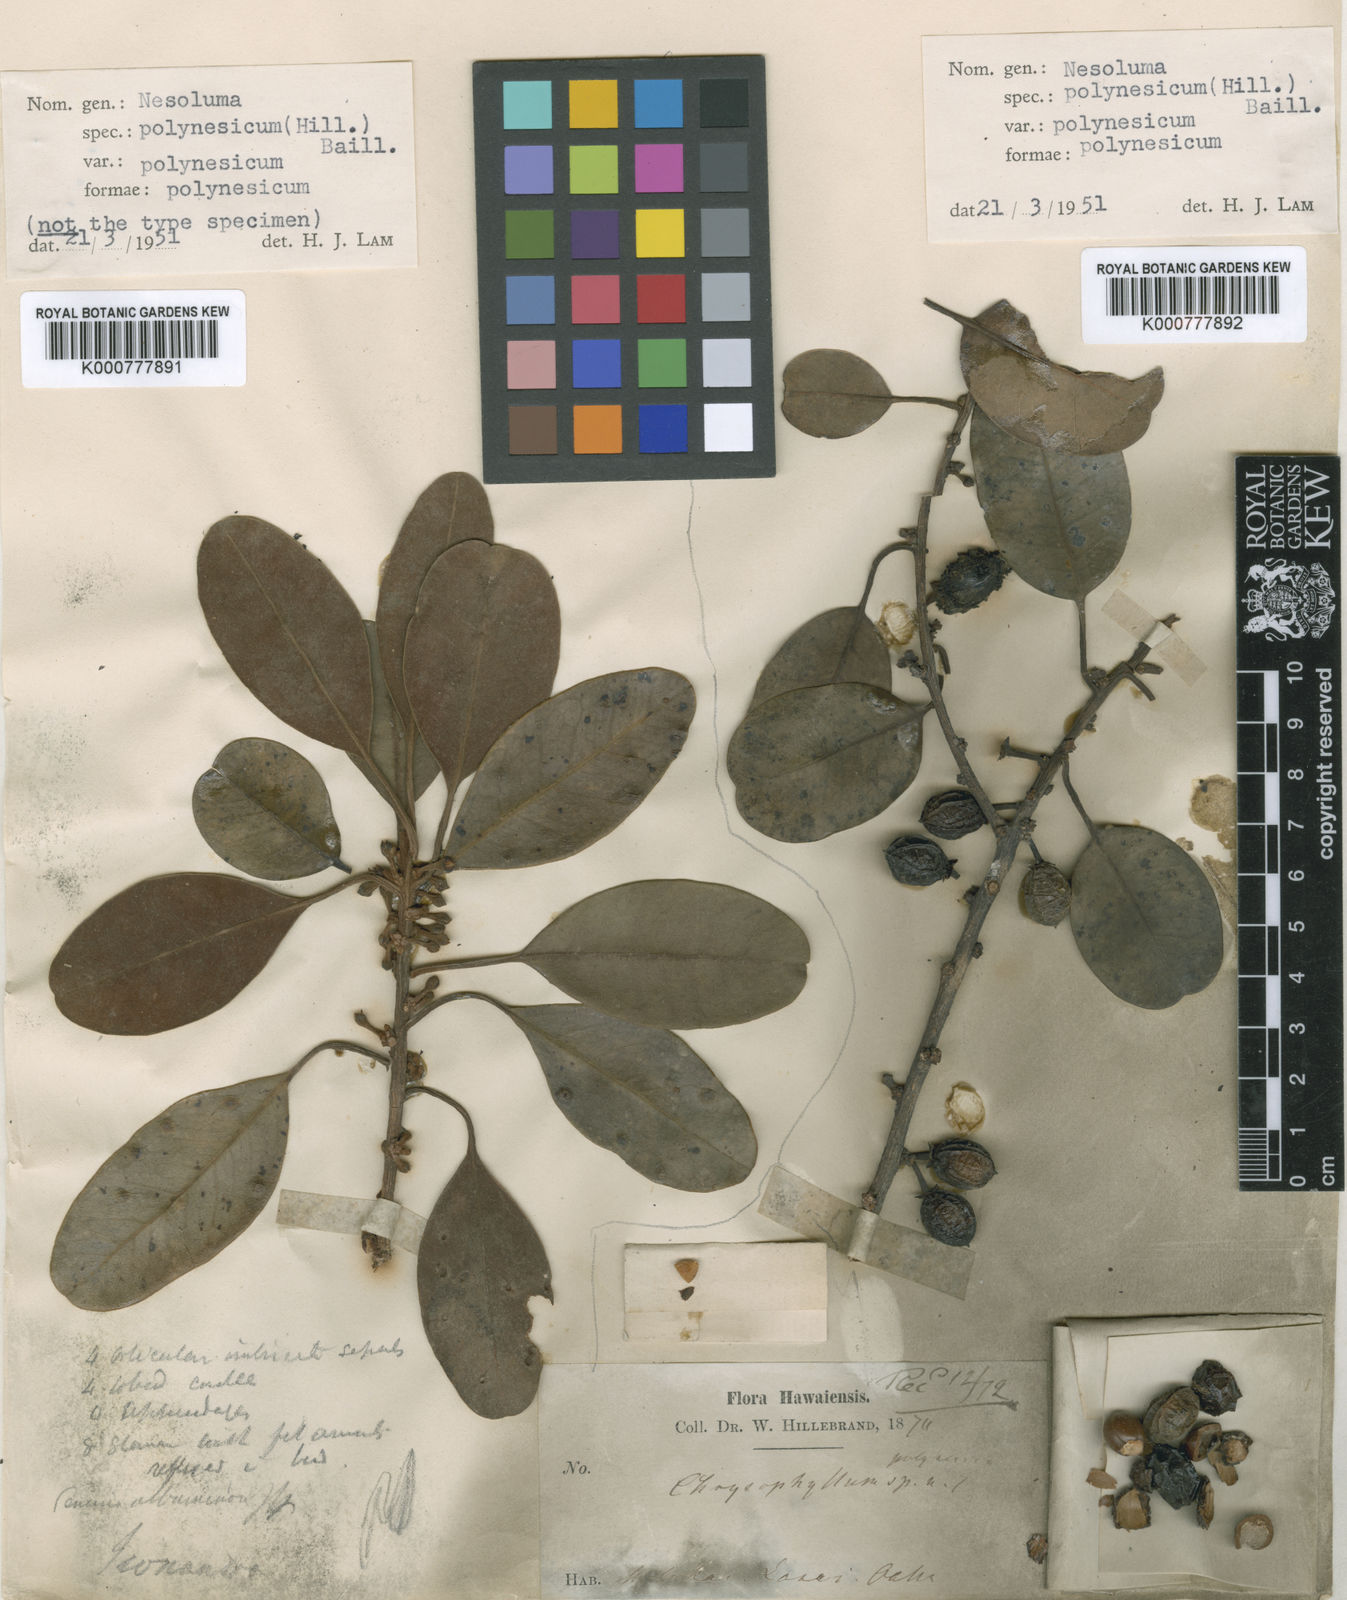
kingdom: Plantae
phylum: Tracheophyta
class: Magnoliopsida
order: Ericales
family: Sapotaceae
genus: Sideroxylon
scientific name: Sideroxylon polynesicum
